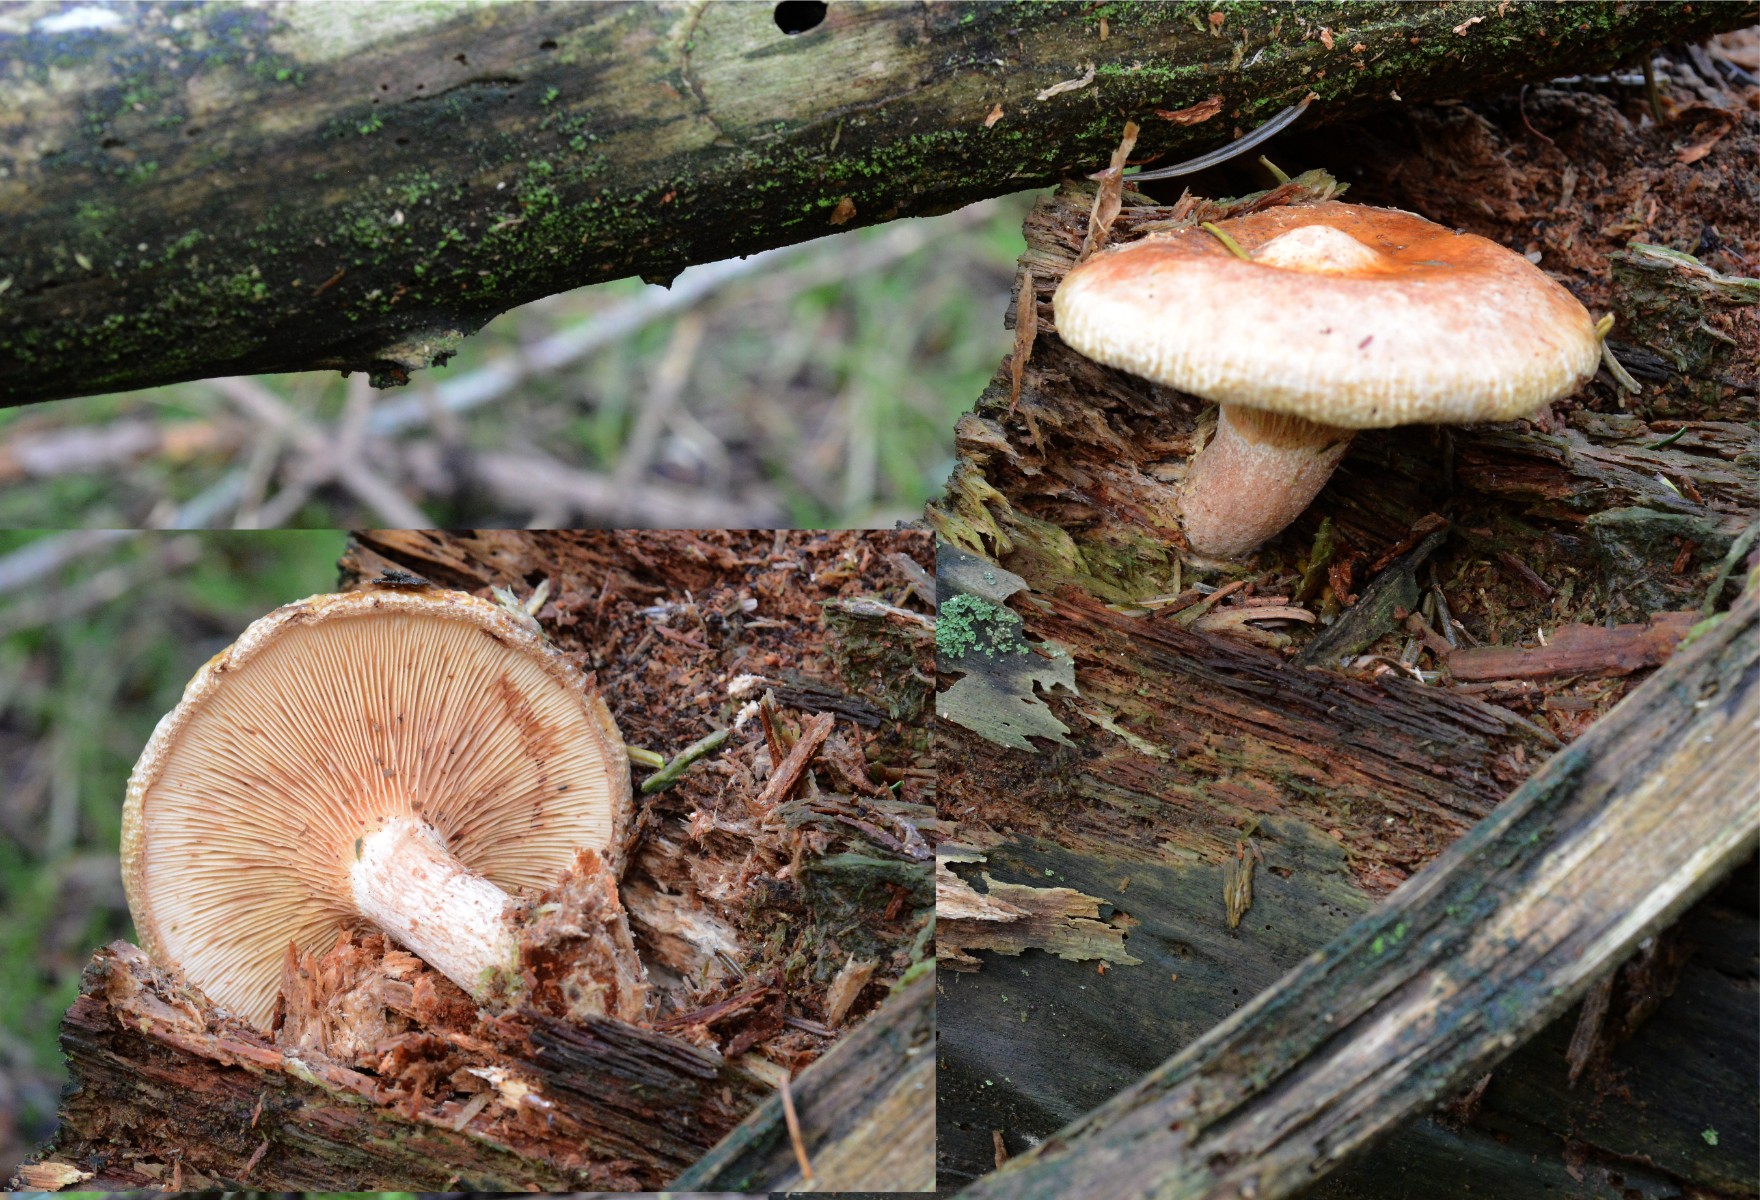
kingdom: Fungi
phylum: Basidiomycota
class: Agaricomycetes
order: Boletales
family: Paxillaceae
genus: Paxillus
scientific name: Paxillus involutus
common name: almindelig netbladhat
